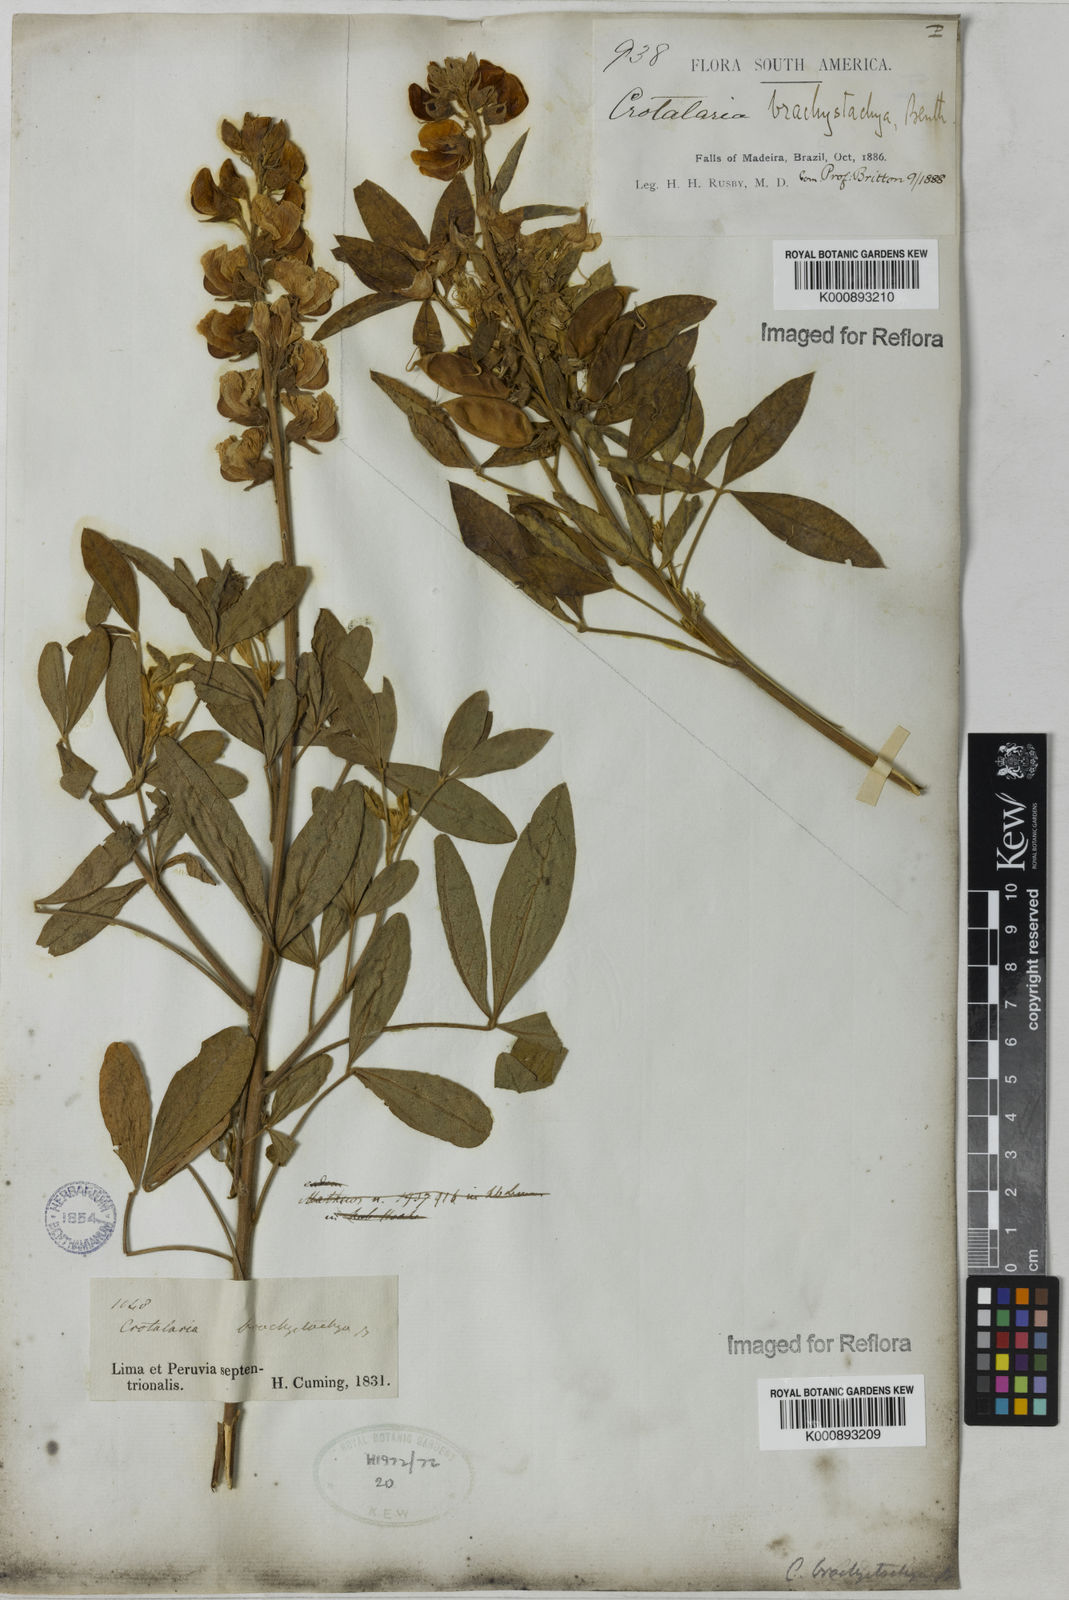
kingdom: Plantae
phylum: Tracheophyta
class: Magnoliopsida
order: Fabales
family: Fabaceae
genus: Crotalaria
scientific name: Crotalaria micans
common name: Caracas rattlebox
